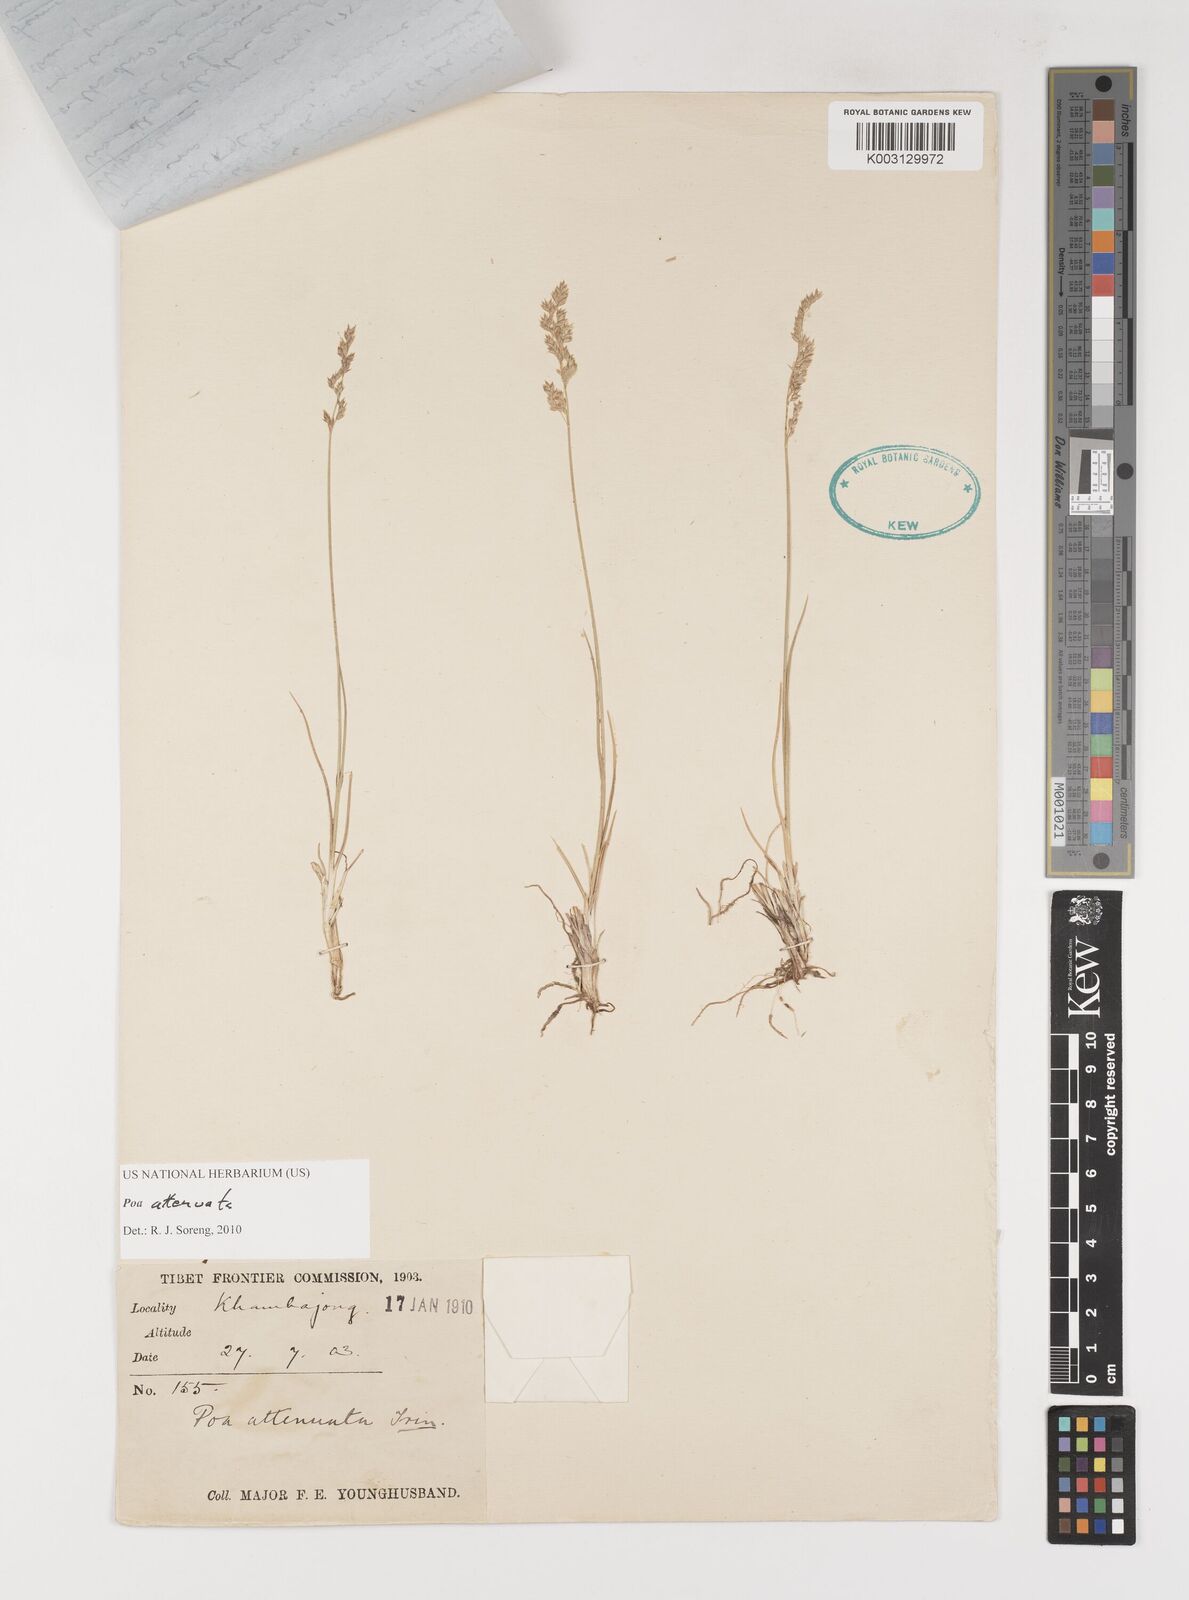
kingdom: Plantae
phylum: Tracheophyta
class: Liliopsida
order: Poales
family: Poaceae
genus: Poa
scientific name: Poa attenuata
